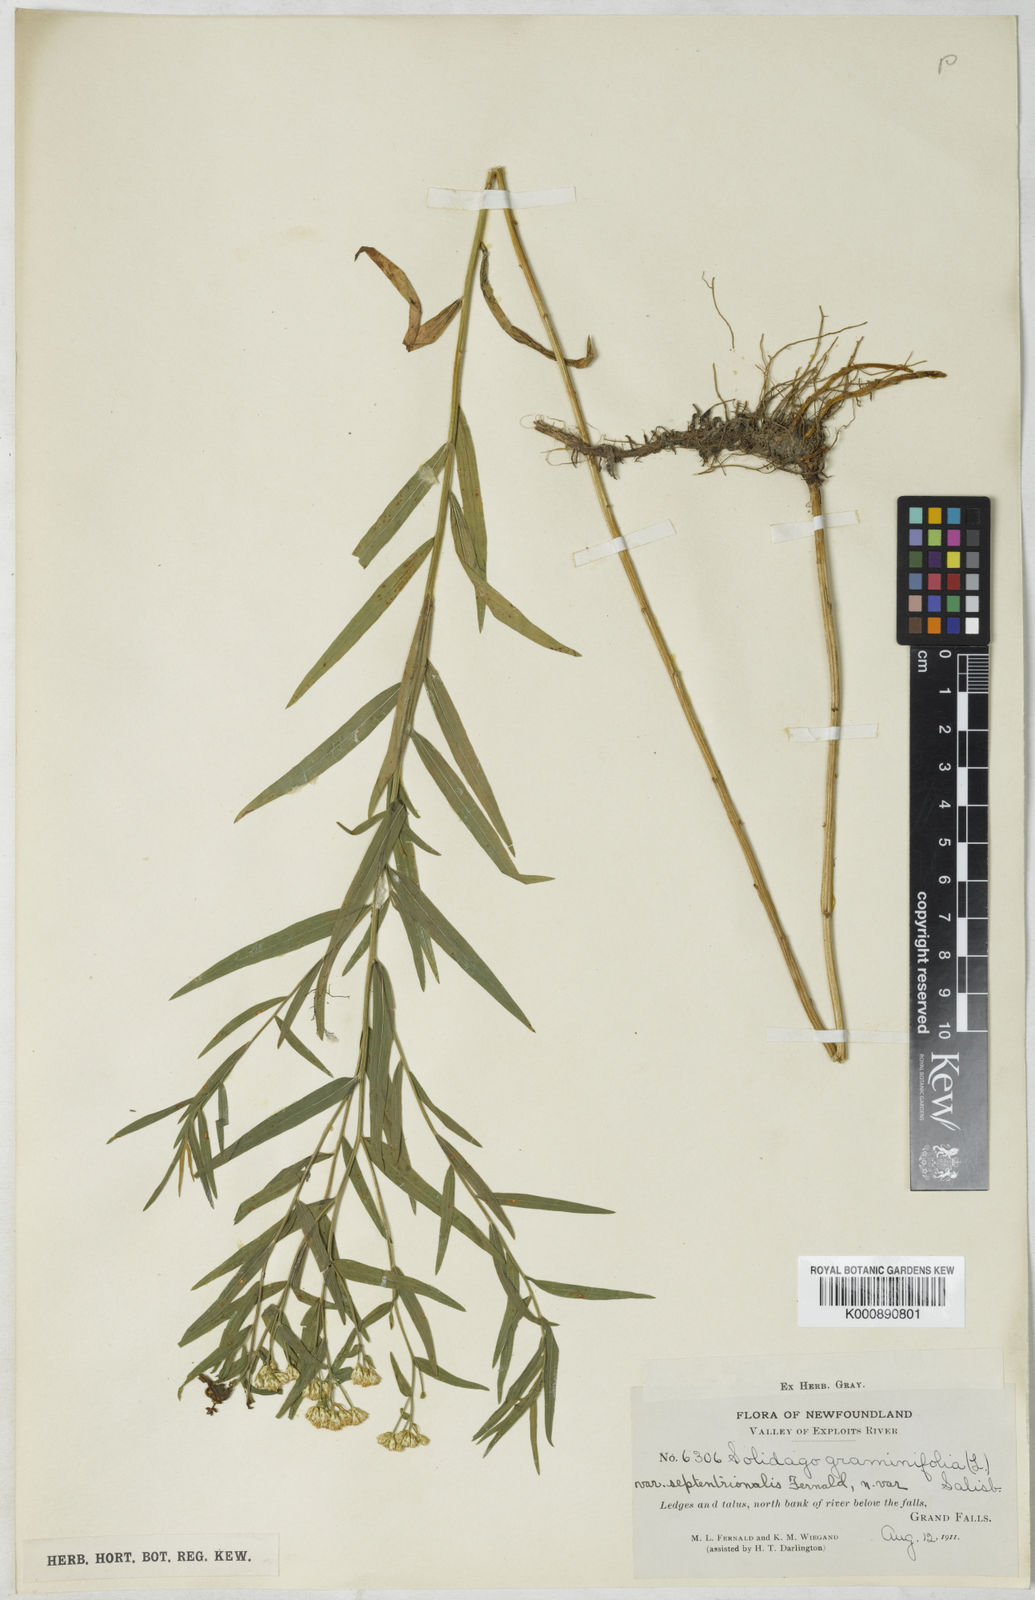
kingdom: Plantae
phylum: Tracheophyta
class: Magnoliopsida
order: Asterales
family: Asteraceae
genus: Euthamia
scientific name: Euthamia
